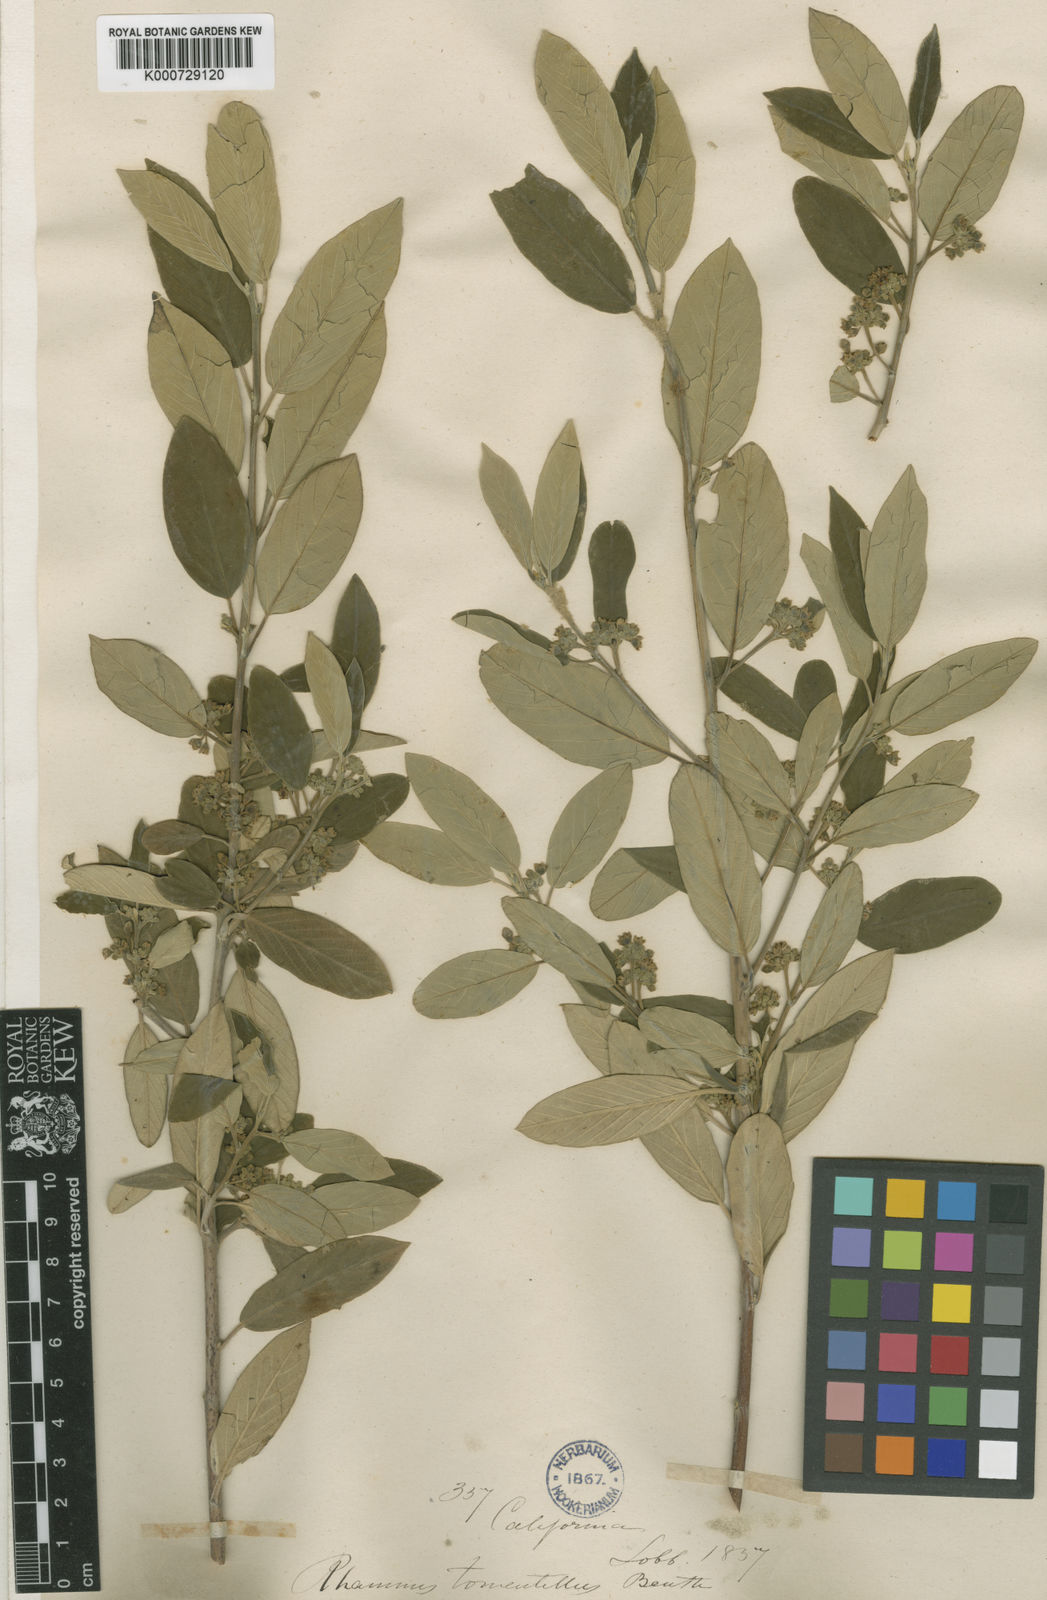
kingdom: Plantae
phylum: Tracheophyta
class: Magnoliopsida
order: Rosales
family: Rhamnaceae
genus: Frangula
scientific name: Frangula californica
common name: California buckthorn
